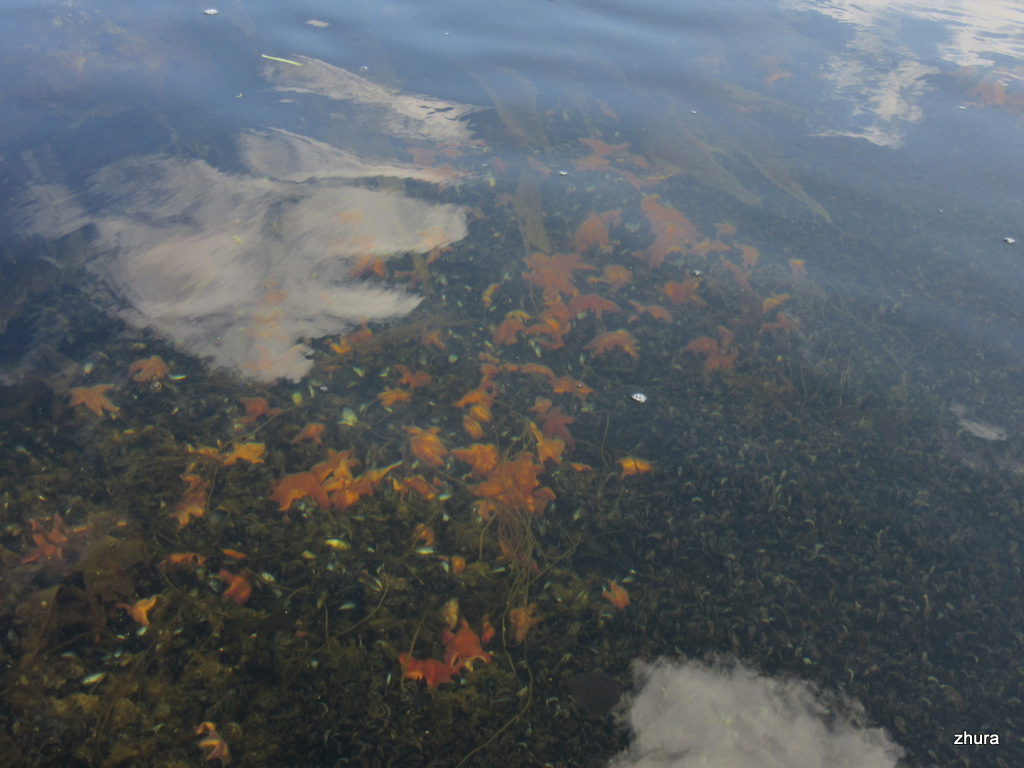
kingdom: Animalia
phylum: Echinodermata
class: Asteroidea
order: Forcipulatida
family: Asteriidae
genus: Asterias
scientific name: Asterias rubens
